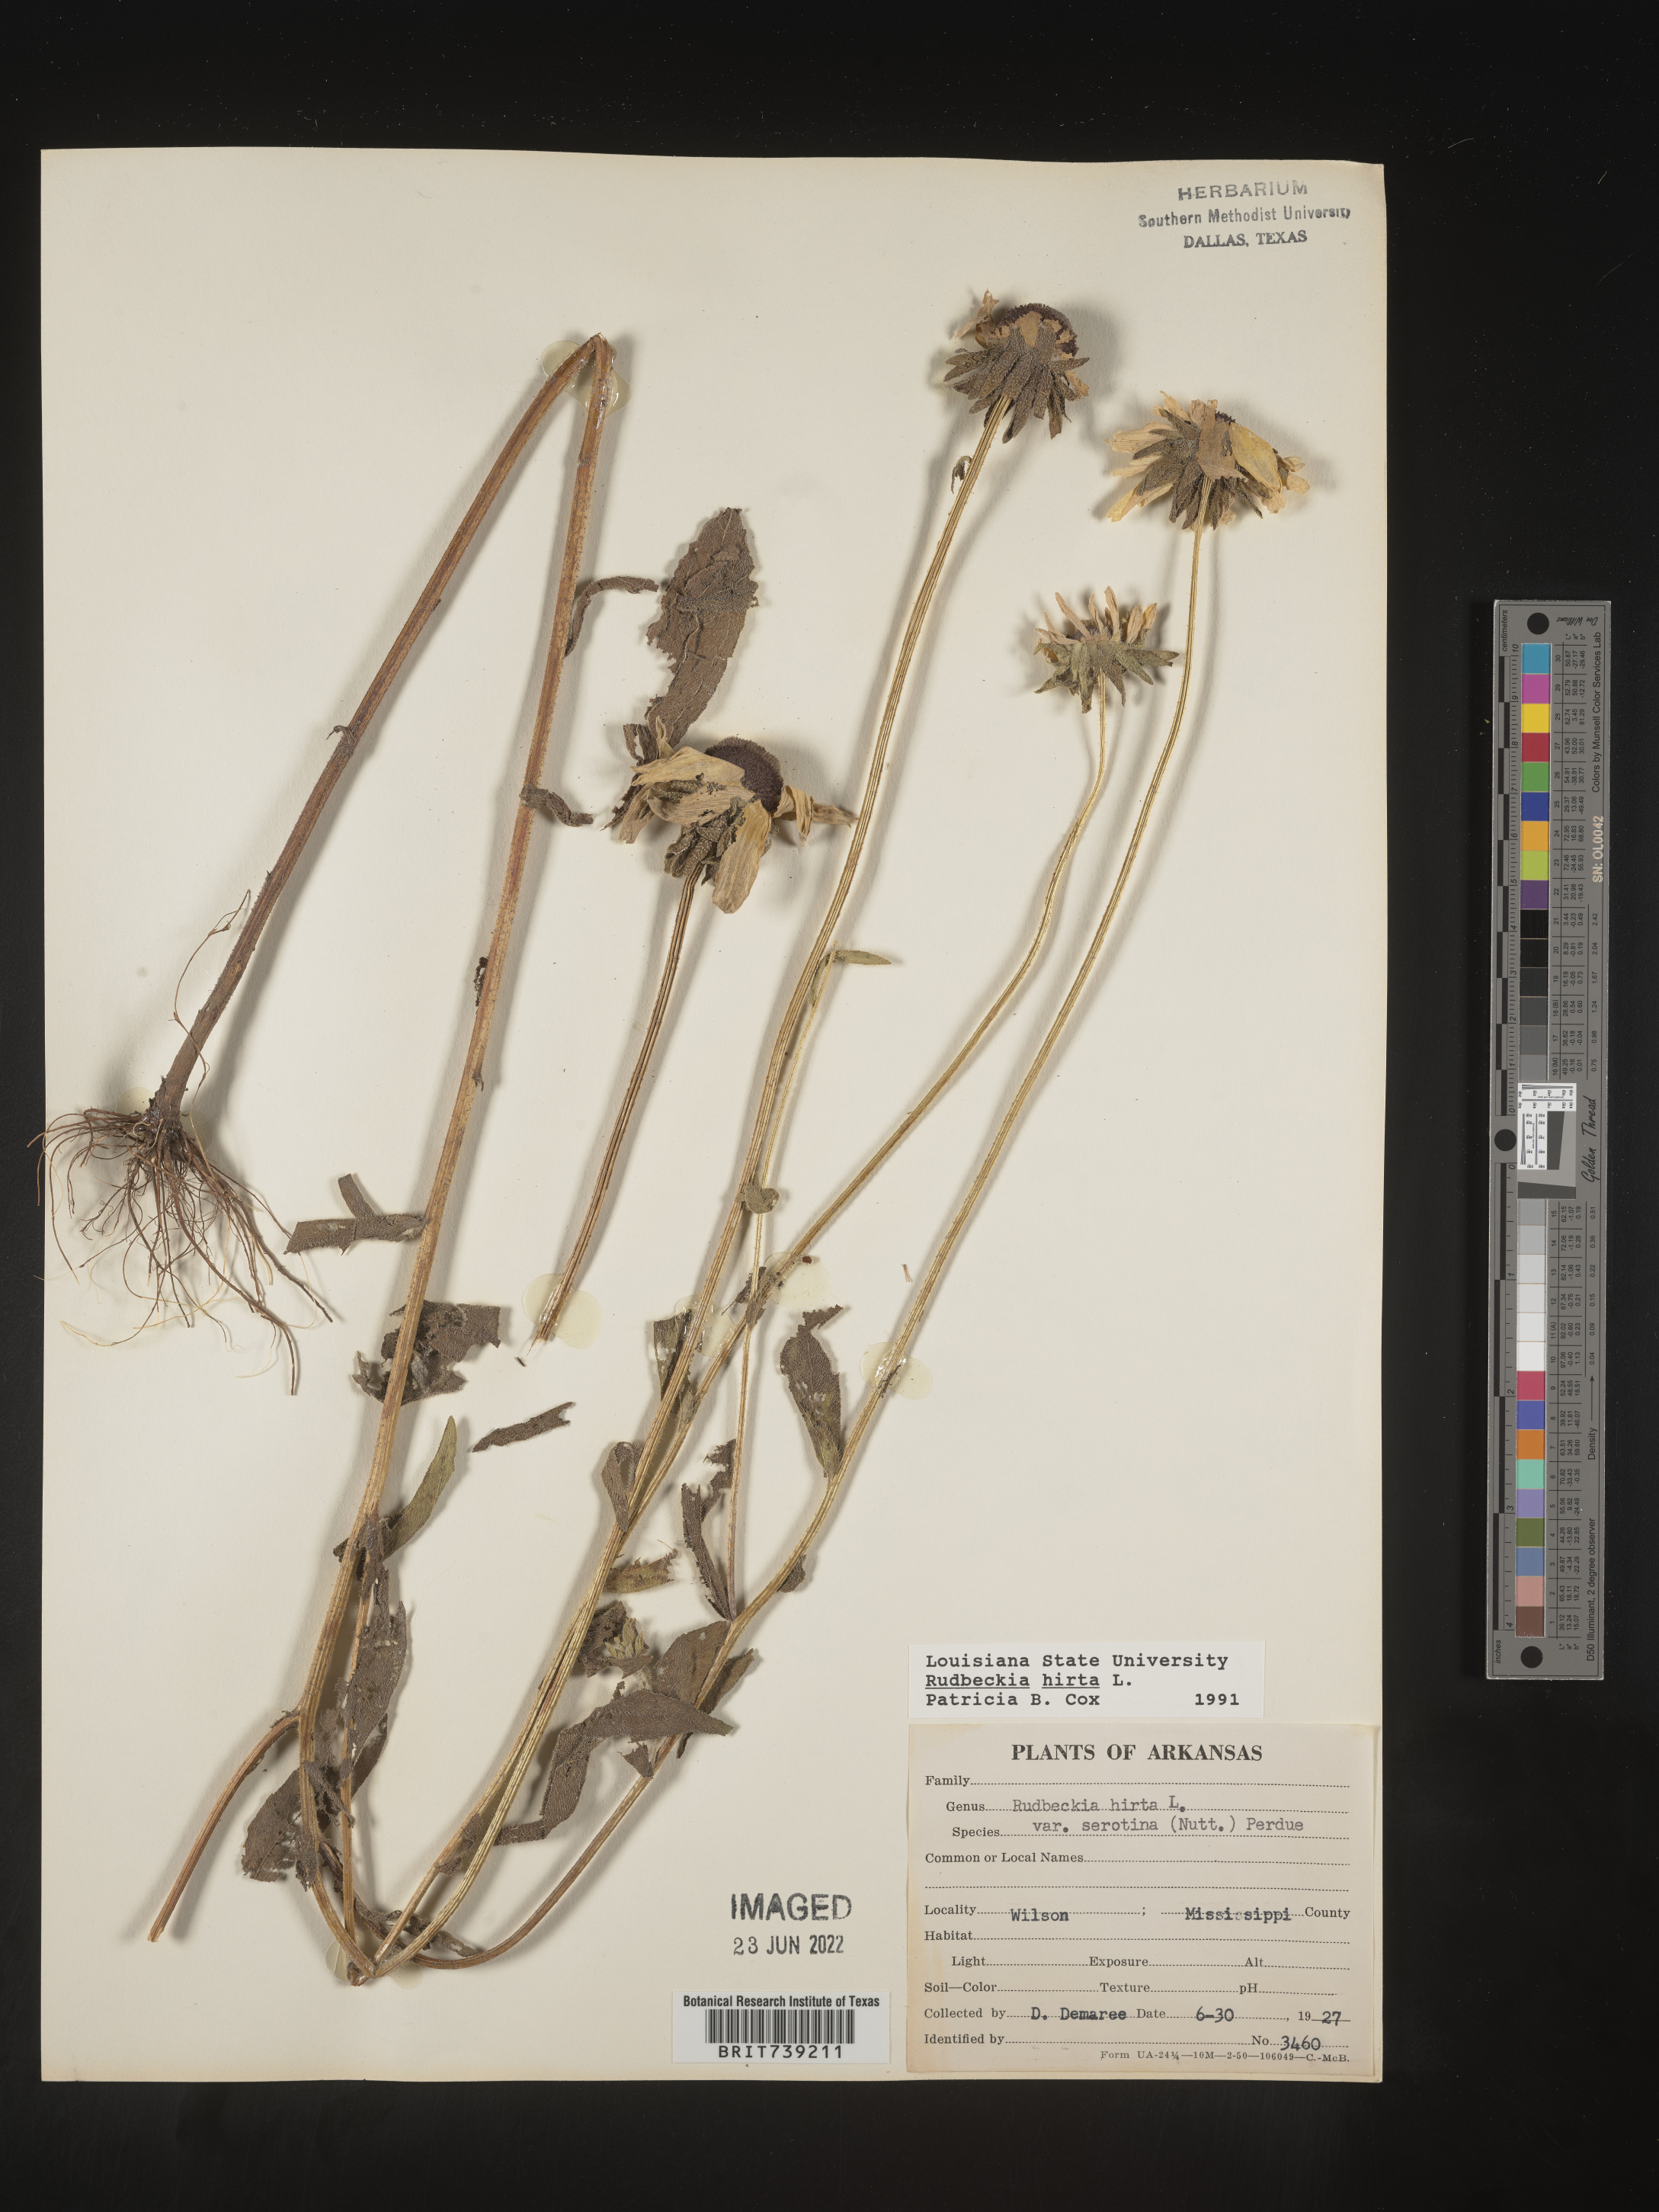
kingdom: Plantae
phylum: Tracheophyta
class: Magnoliopsida
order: Asterales
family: Asteraceae
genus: Rudbeckia
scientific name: Rudbeckia hirta
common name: Black-eyed-susan
